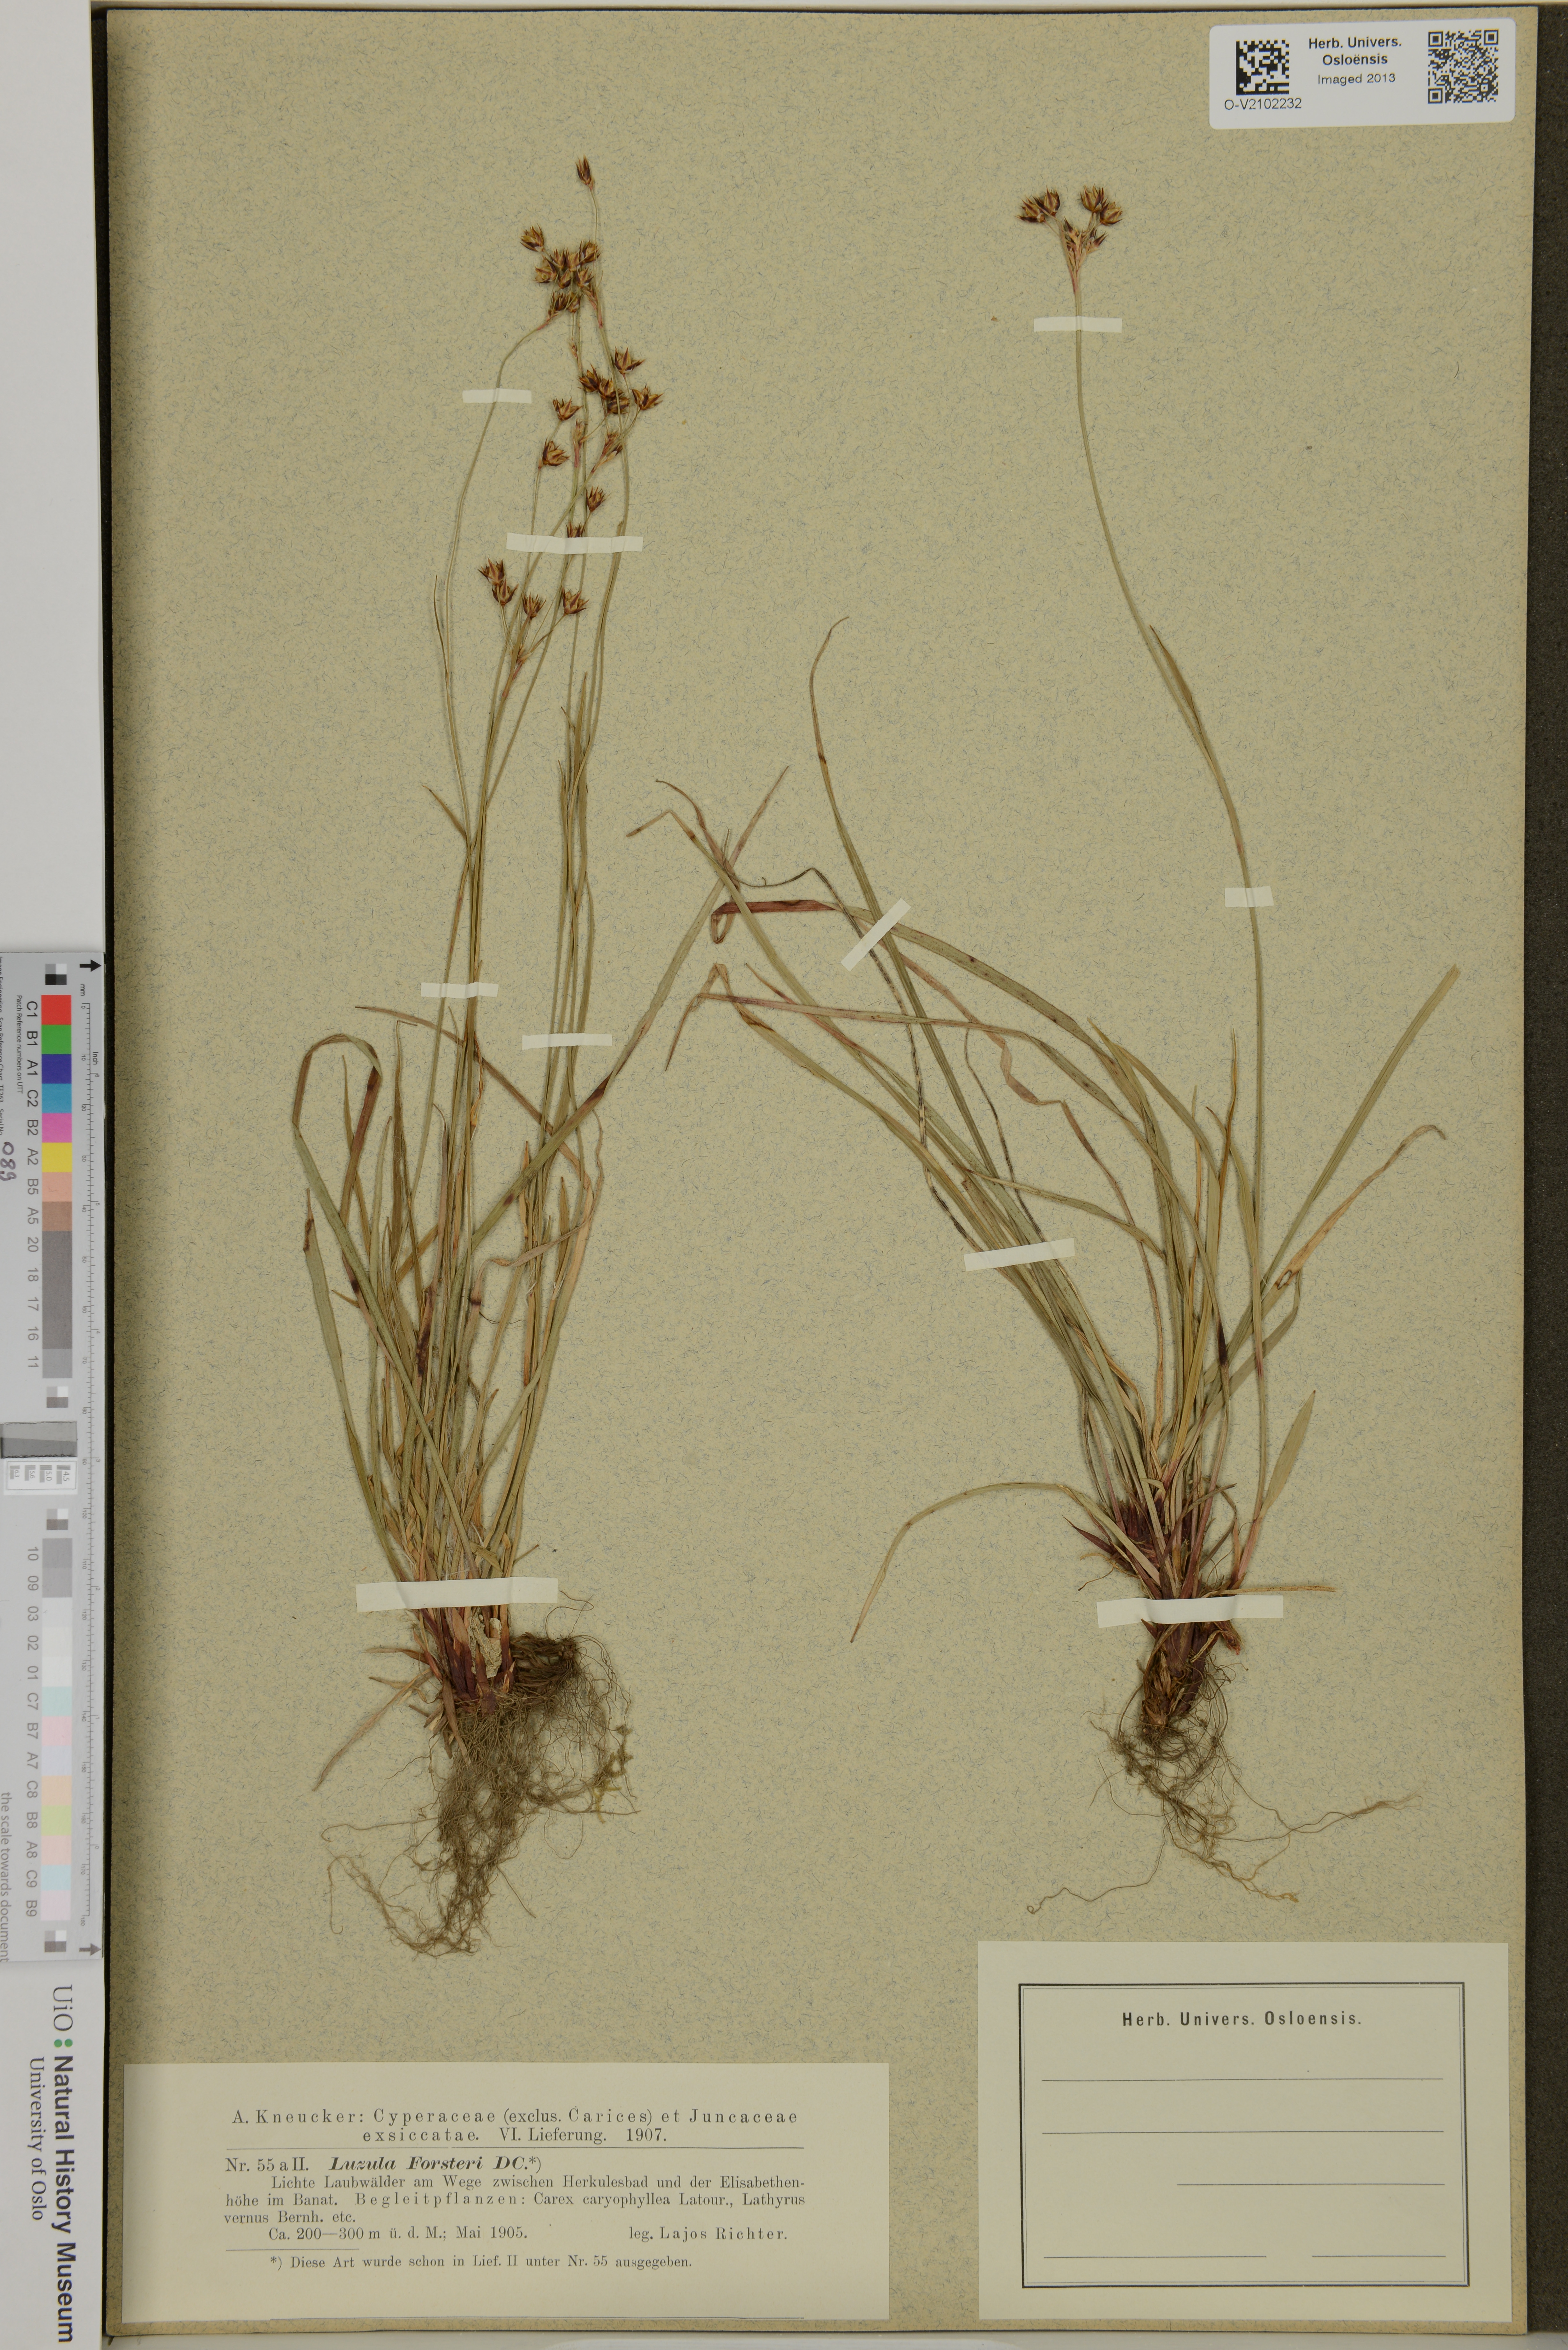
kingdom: Plantae
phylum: Tracheophyta
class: Liliopsida
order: Poales
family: Juncaceae
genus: Luzula
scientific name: Luzula forsteri
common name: Southern wood-rush
